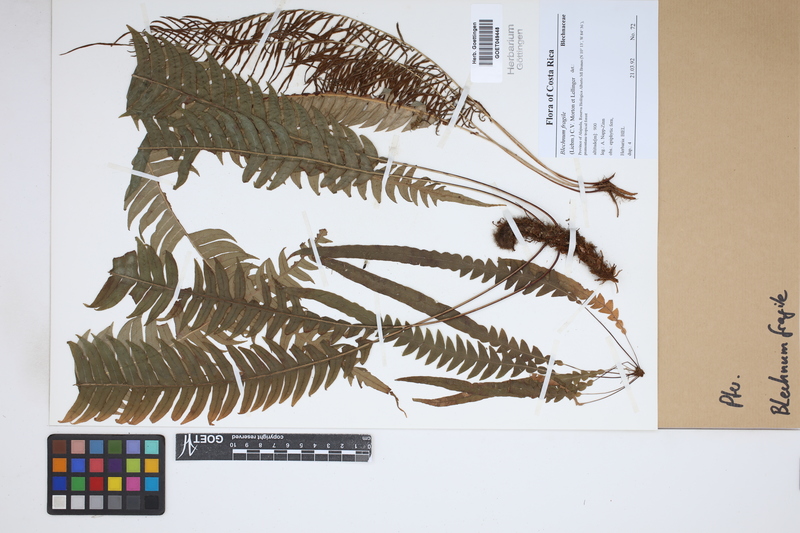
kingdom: Plantae
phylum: Tracheophyta
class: Polypodiopsida
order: Polypodiales
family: Blechnaceae
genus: Lomaridium
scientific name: Lomaridium fragile
